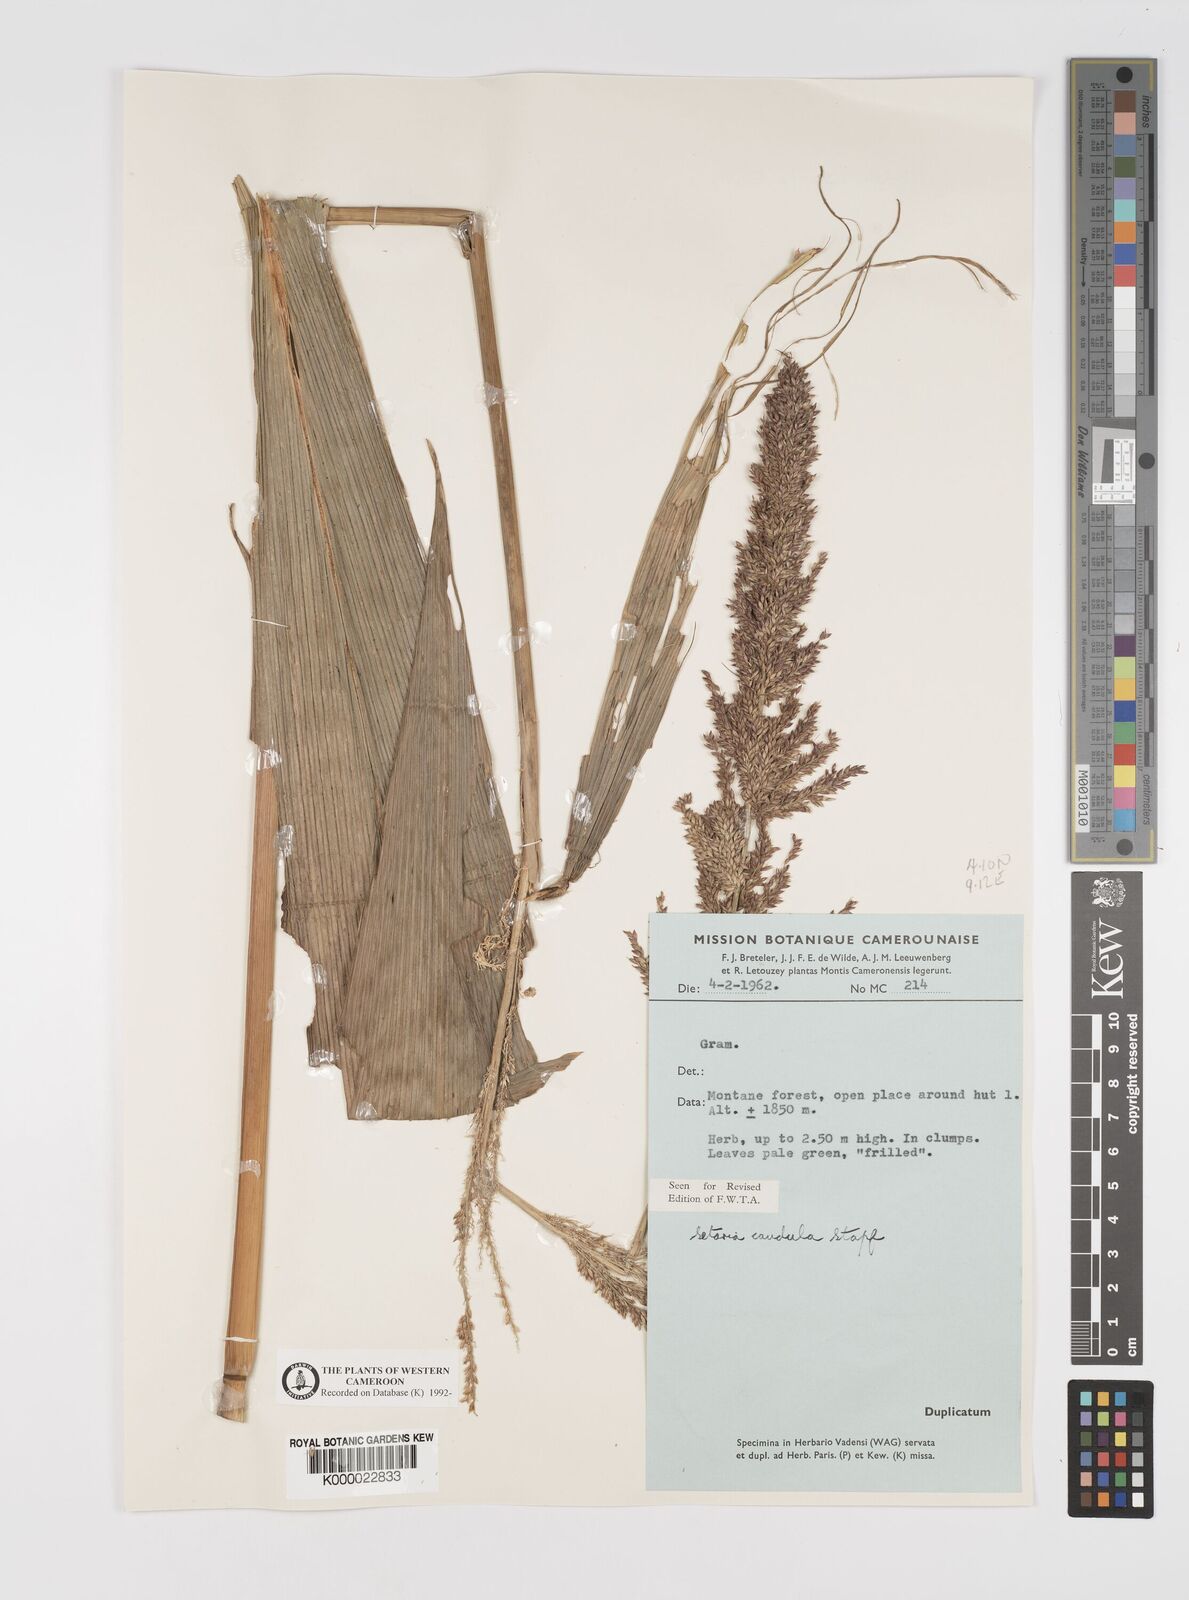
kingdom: Plantae
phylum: Tracheophyta
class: Liliopsida
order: Poales
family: Poaceae
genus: Setaria
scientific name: Setaria poiretiana
